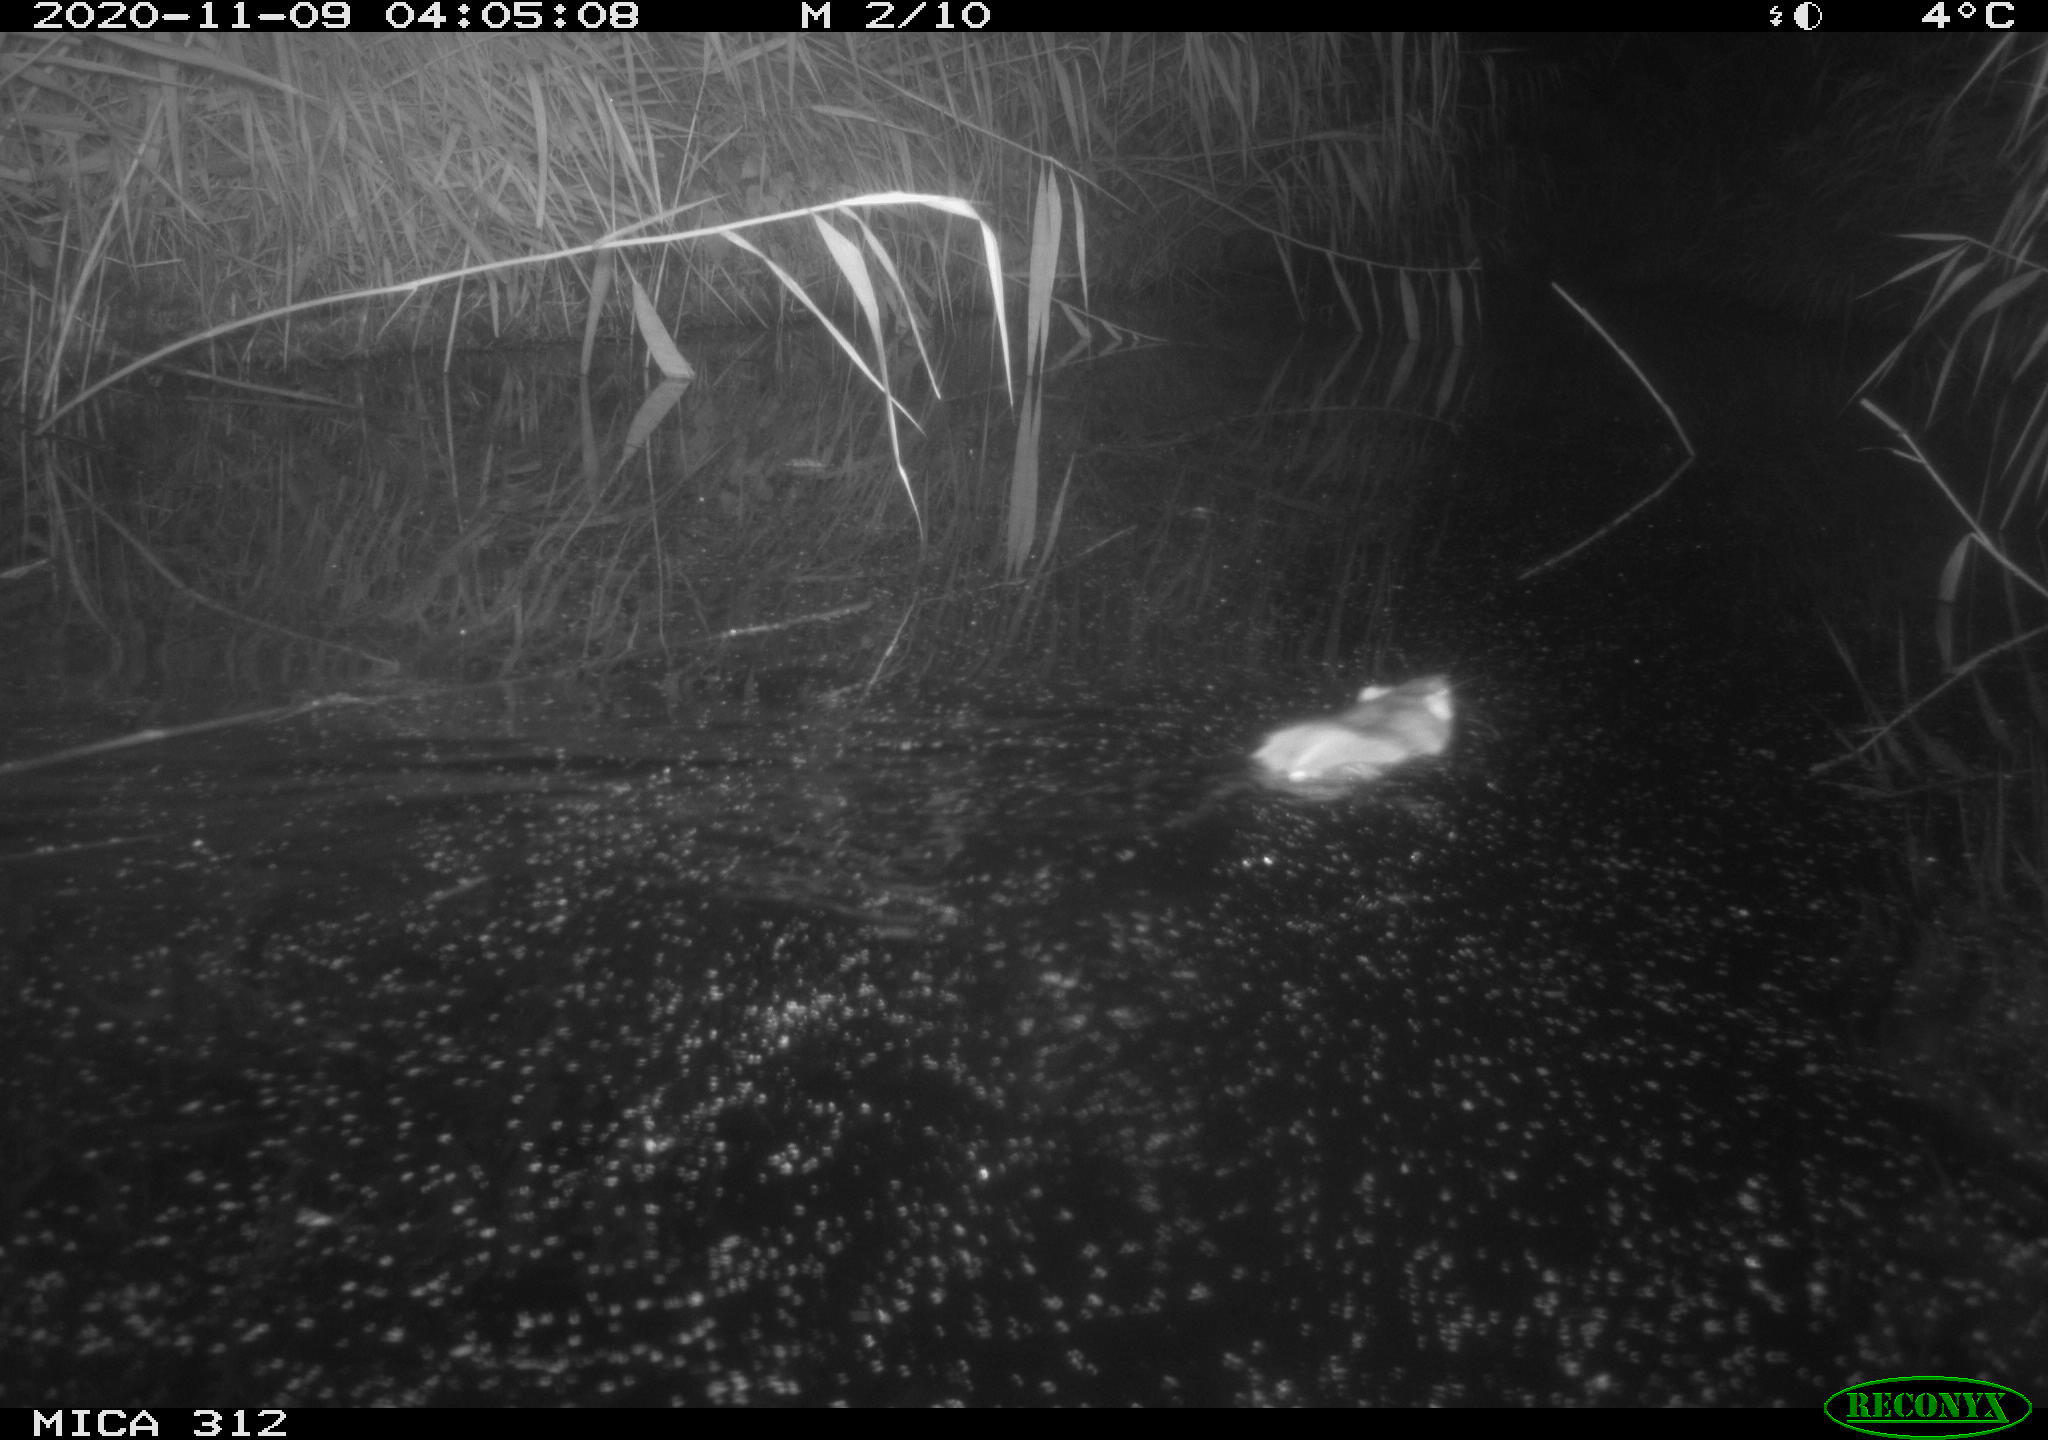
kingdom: Animalia
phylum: Chordata
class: Mammalia
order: Rodentia
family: Muridae
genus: Rattus
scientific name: Rattus norvegicus
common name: Brown rat
